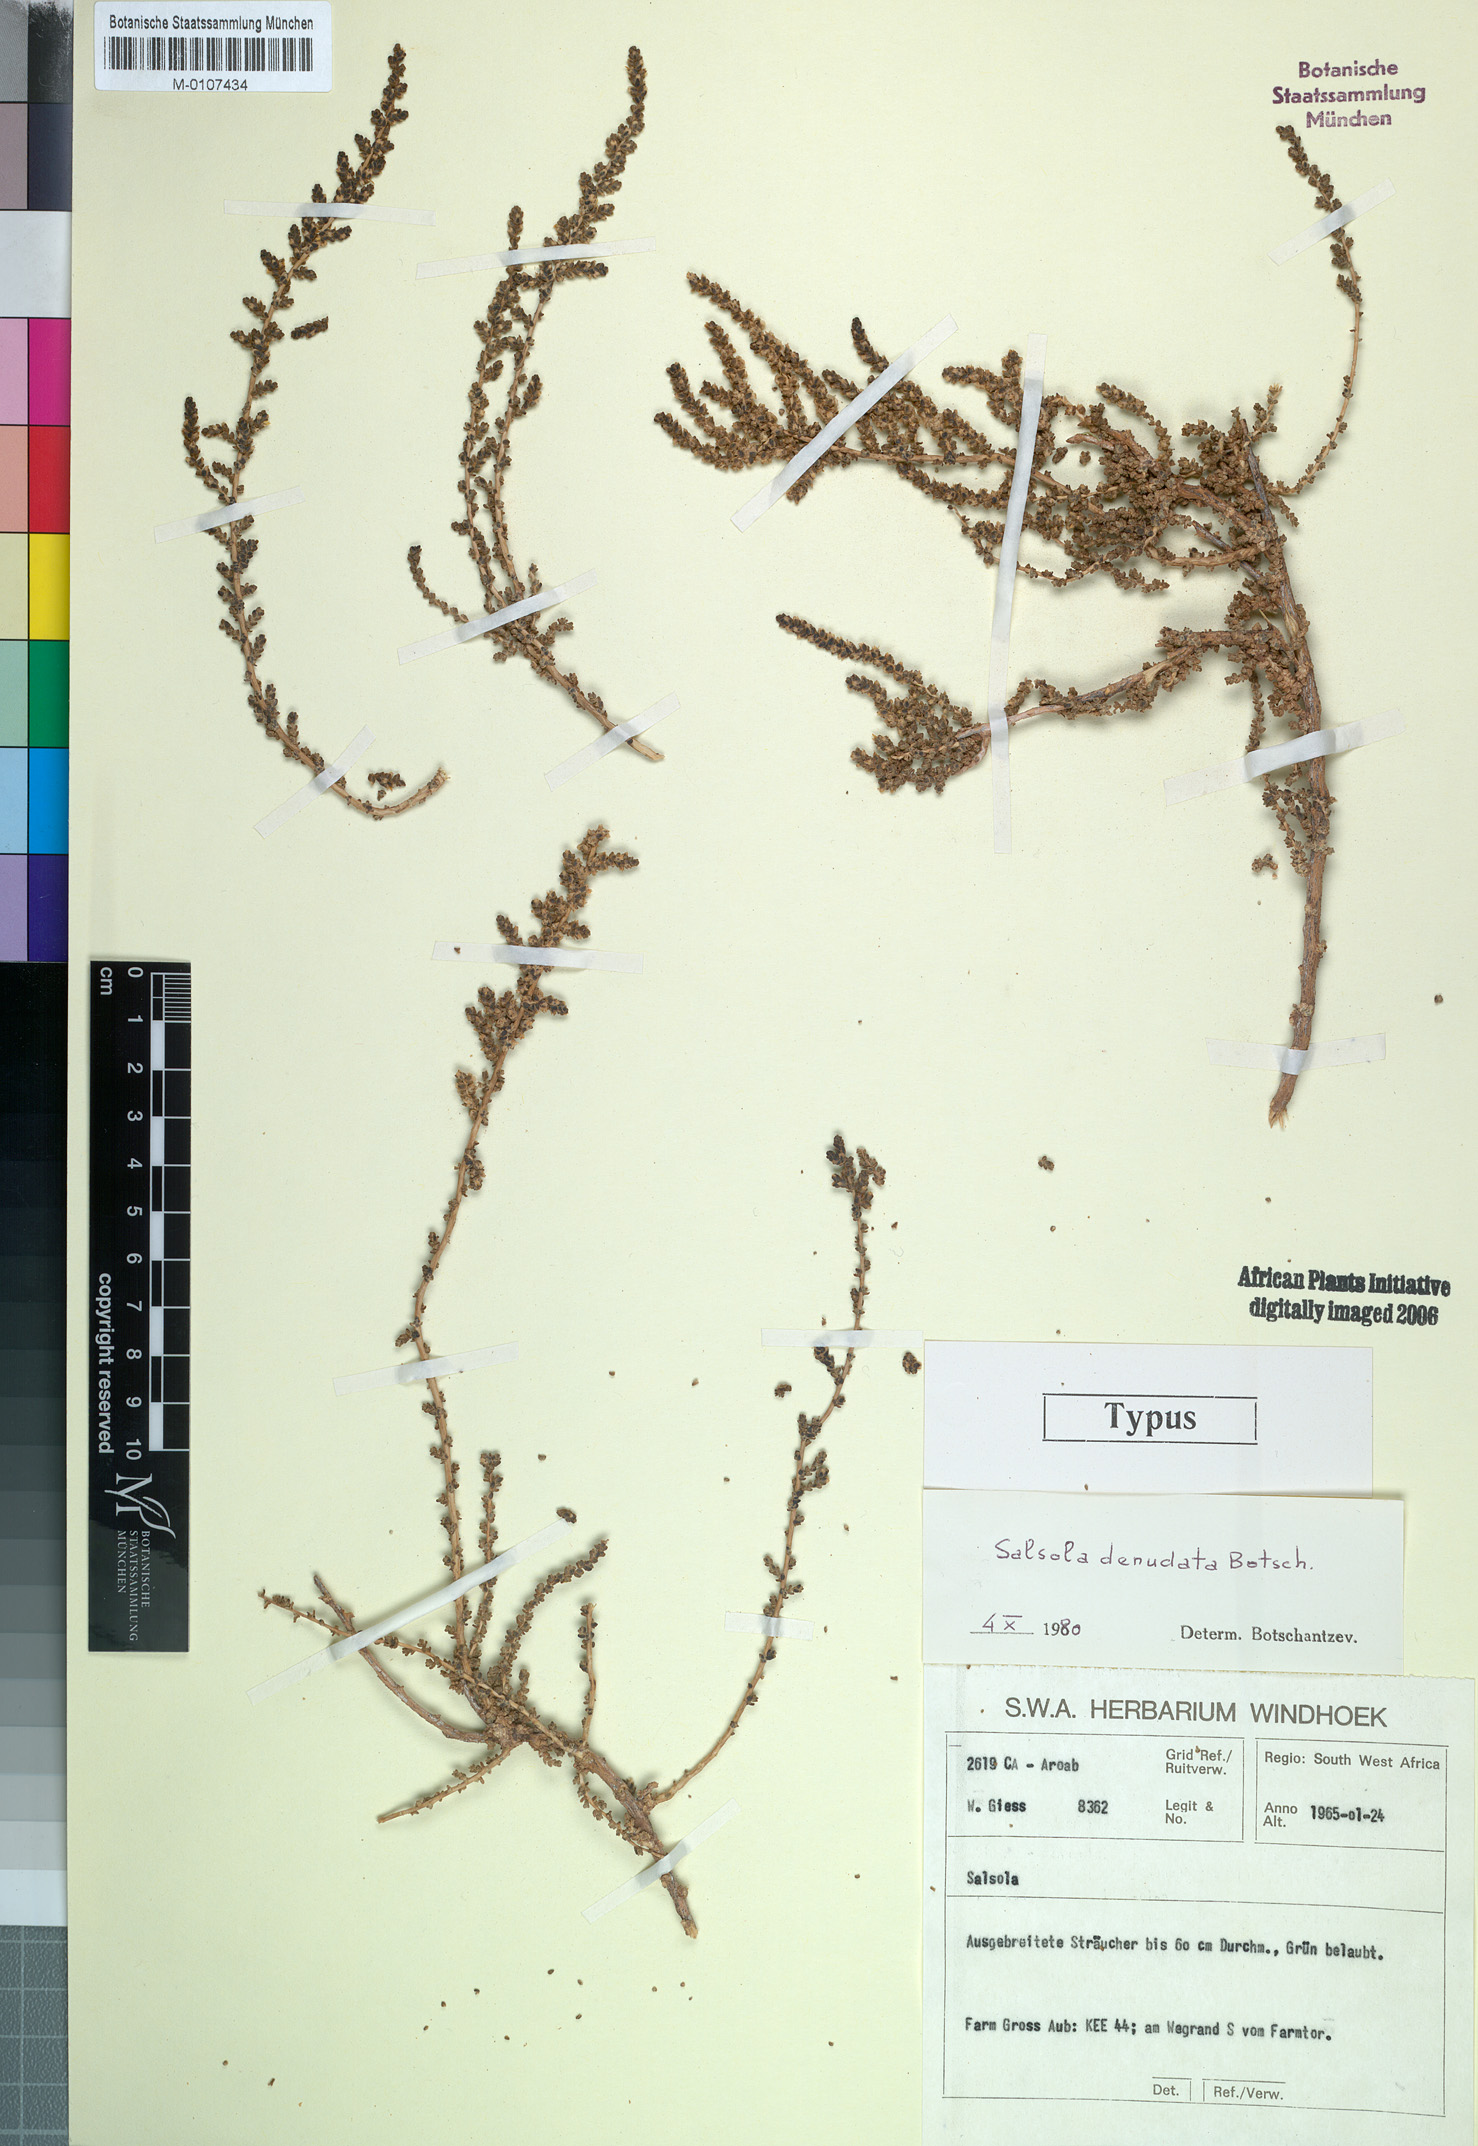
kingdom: Plantae
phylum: Tracheophyta
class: Magnoliopsida
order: Caryophyllales
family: Amaranthaceae
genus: Caroxylon
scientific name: Caroxylon denudatum
